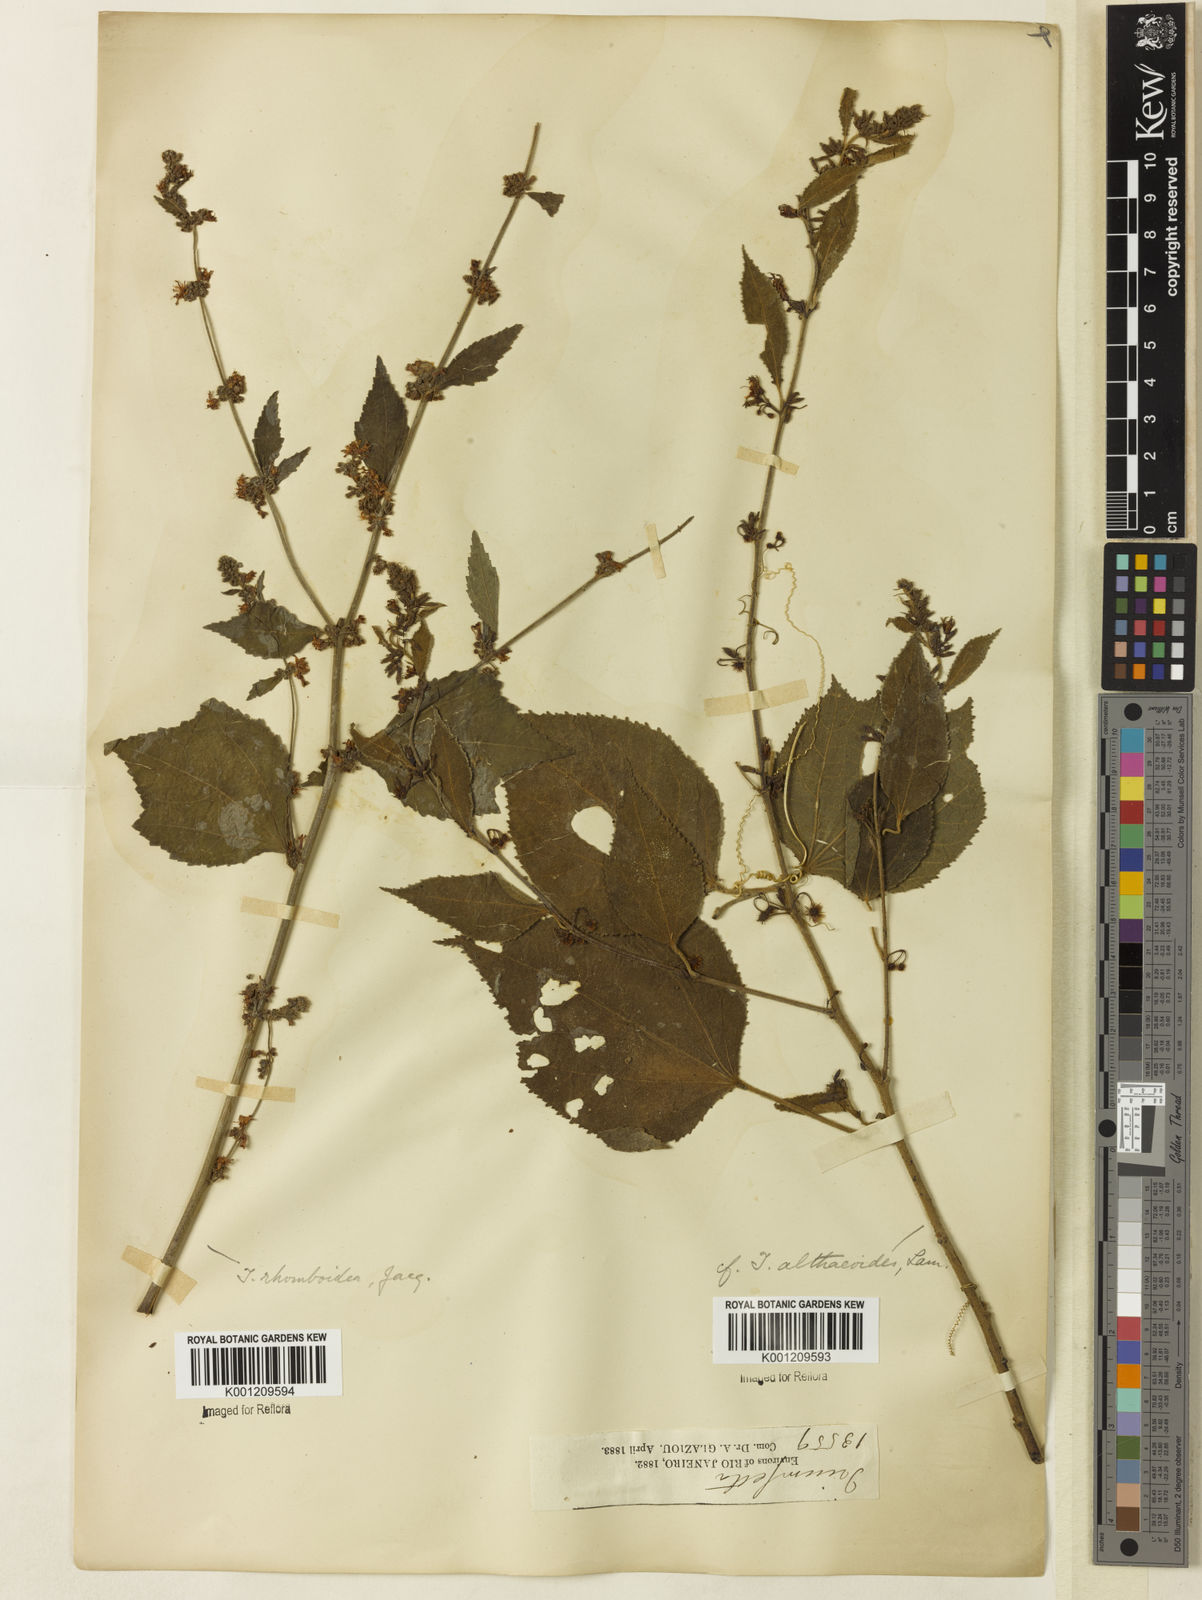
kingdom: Plantae
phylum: Tracheophyta
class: Magnoliopsida
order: Malvales
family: Malvaceae
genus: Triumfetta
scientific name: Triumfetta rhomboidea
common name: Diamond burbark
